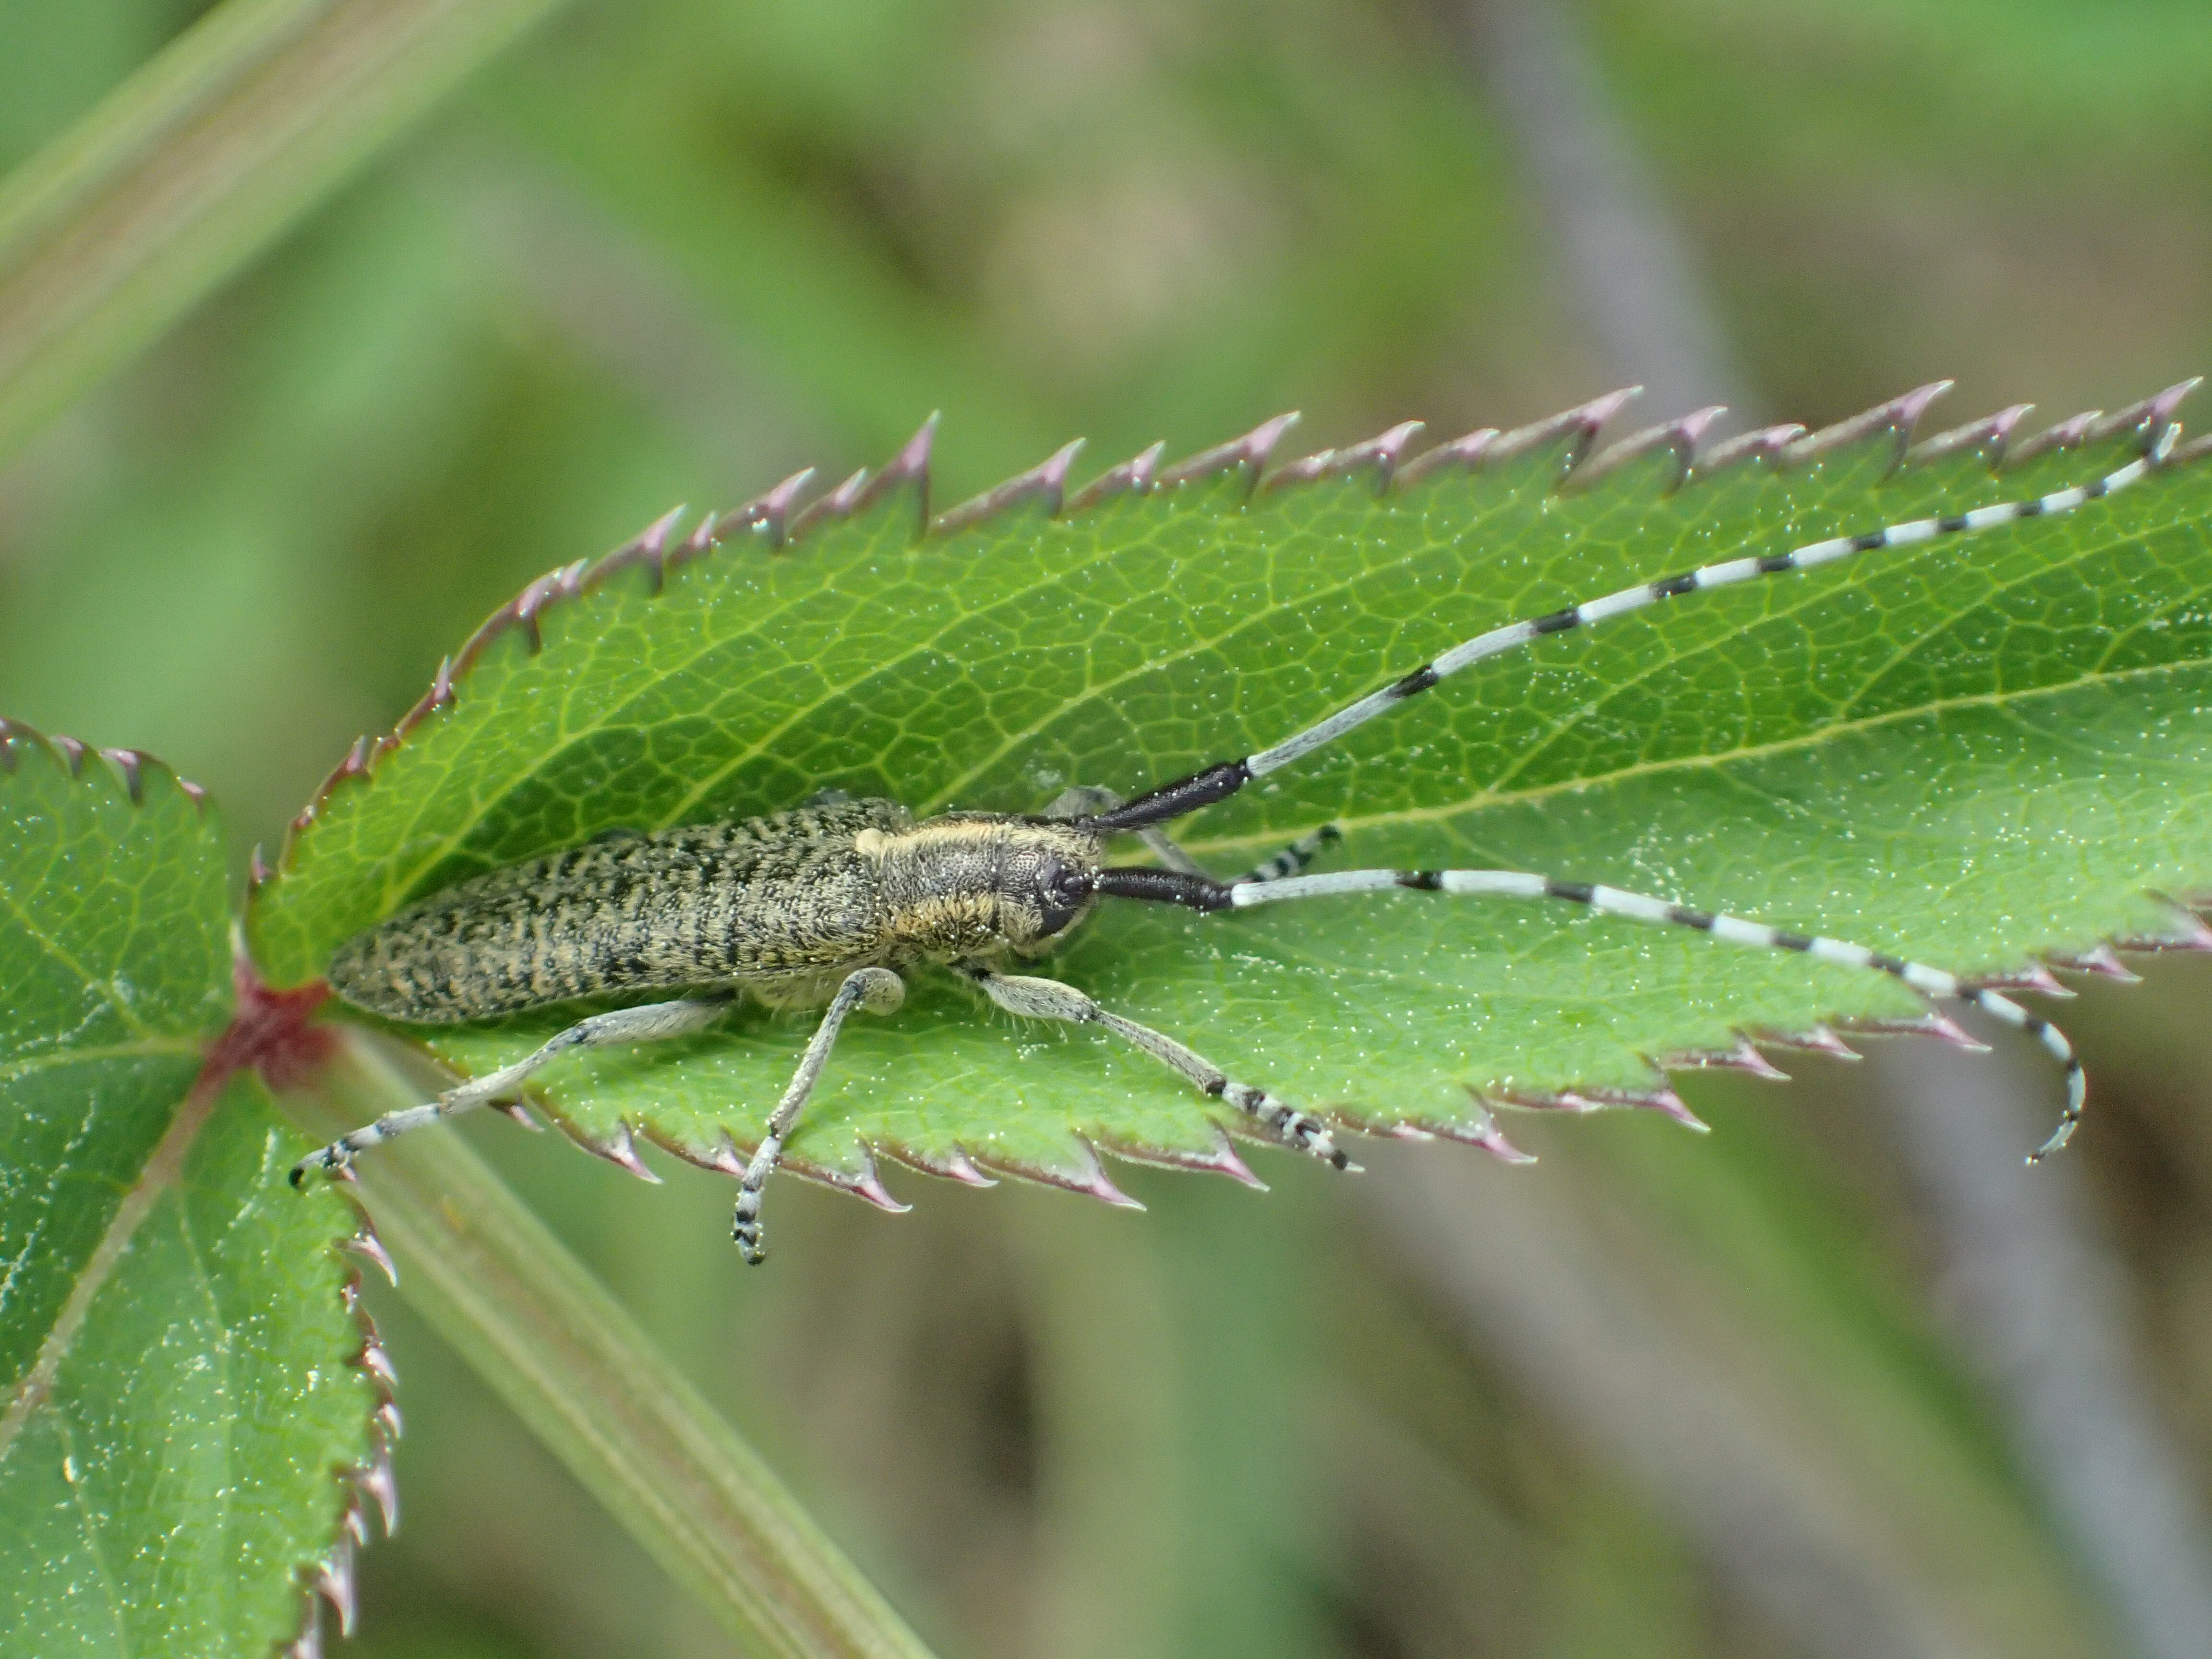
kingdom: Animalia
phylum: Arthropoda
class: Insecta
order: Coleoptera
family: Cerambycidae
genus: Agapanthia
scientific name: Agapanthia villosoviridescens
